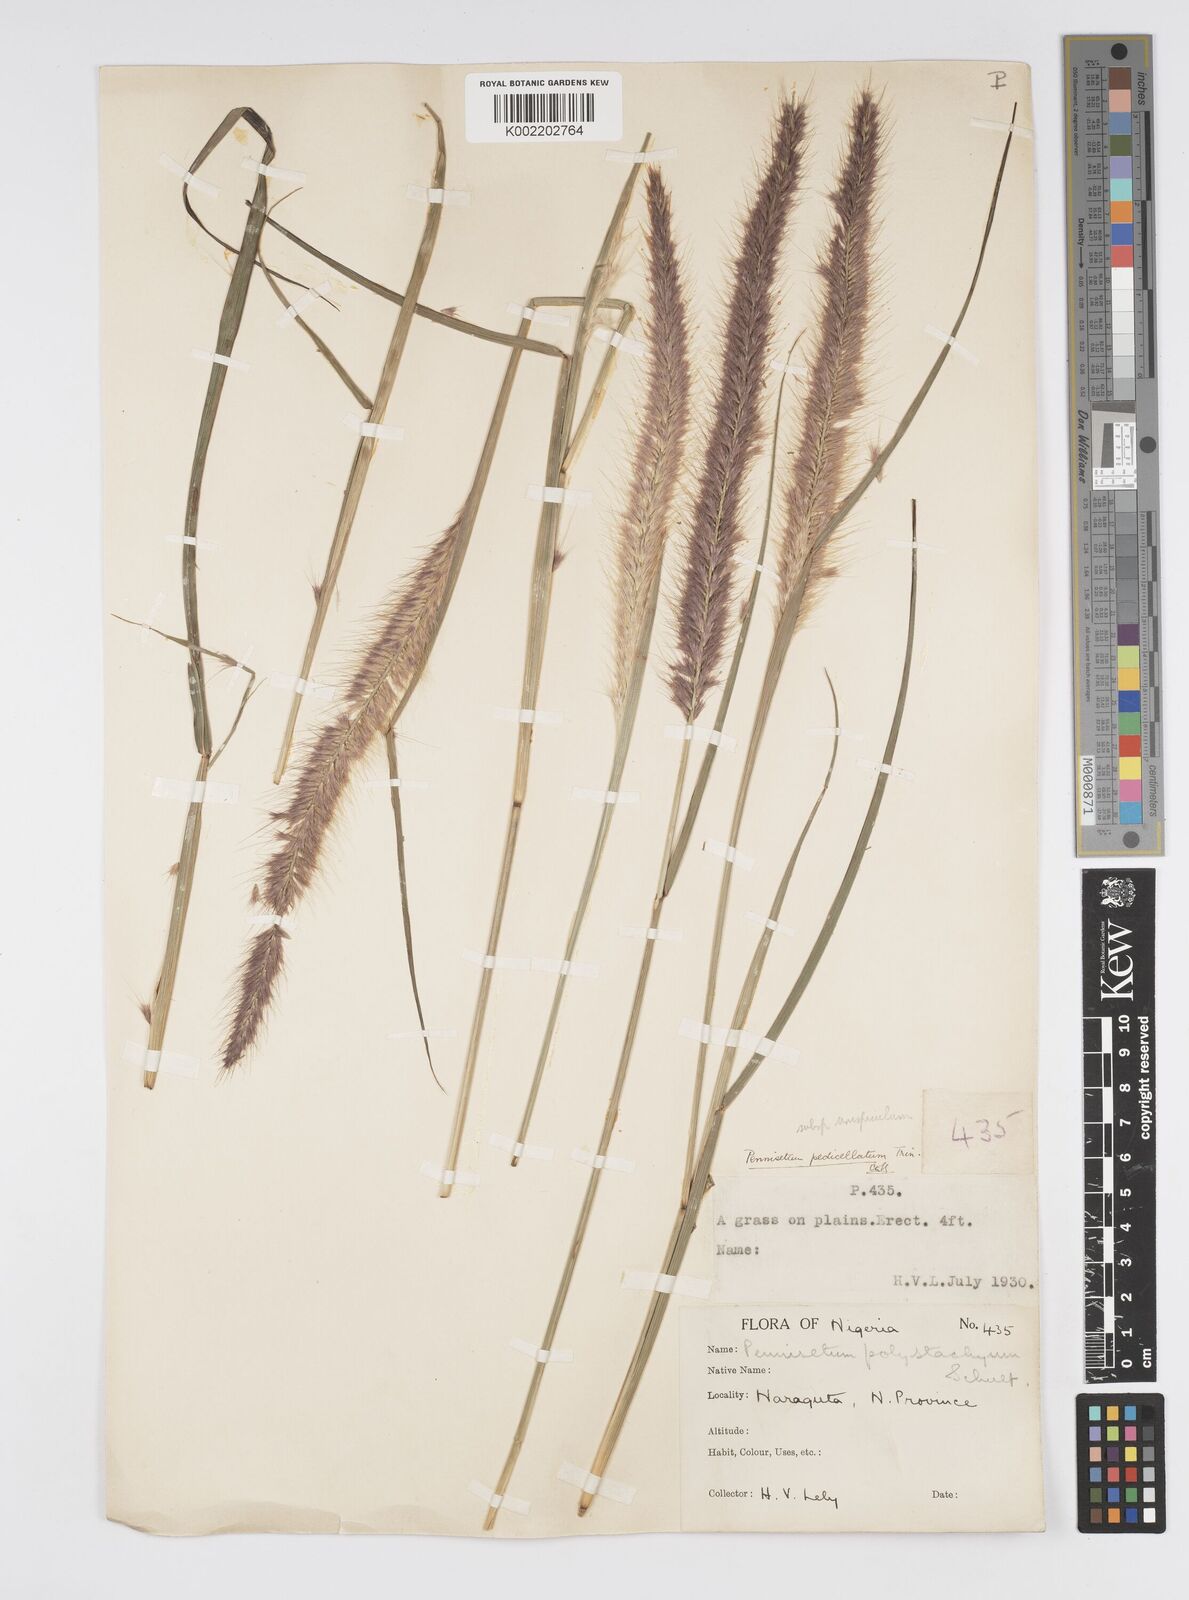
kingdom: Plantae
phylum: Tracheophyta
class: Liliopsida
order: Poales
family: Poaceae
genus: Cenchrus
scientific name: Cenchrus pedicellatus
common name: Hairy fountain grass
